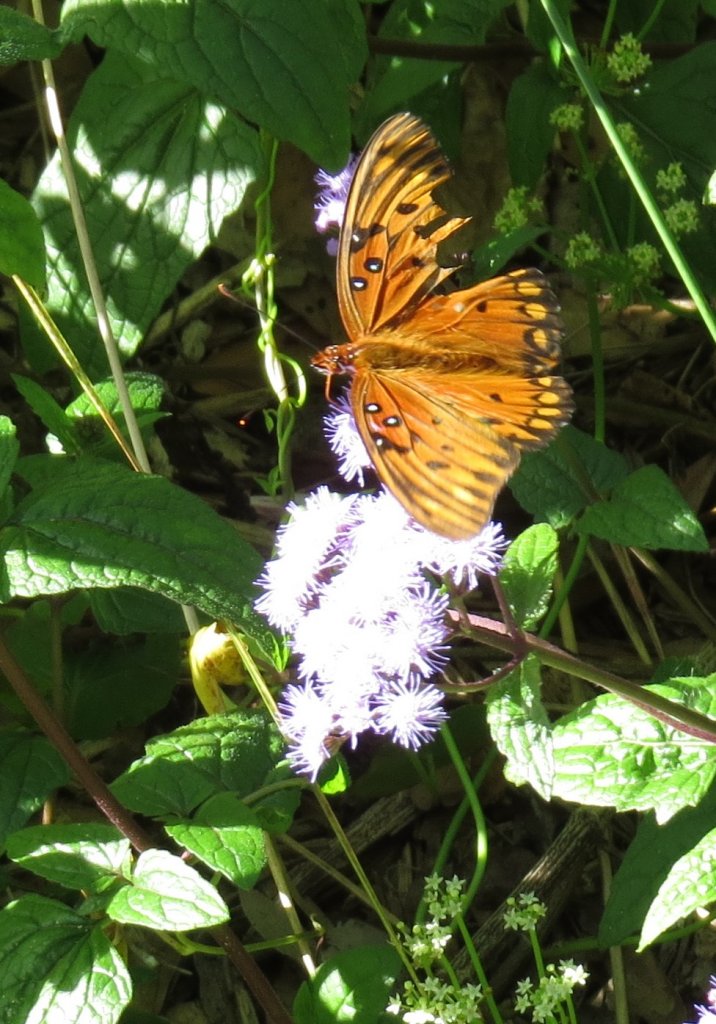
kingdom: Animalia
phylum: Arthropoda
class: Insecta
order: Lepidoptera
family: Nymphalidae
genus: Dione
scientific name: Dione vanillae
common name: Gulf Fritillary
